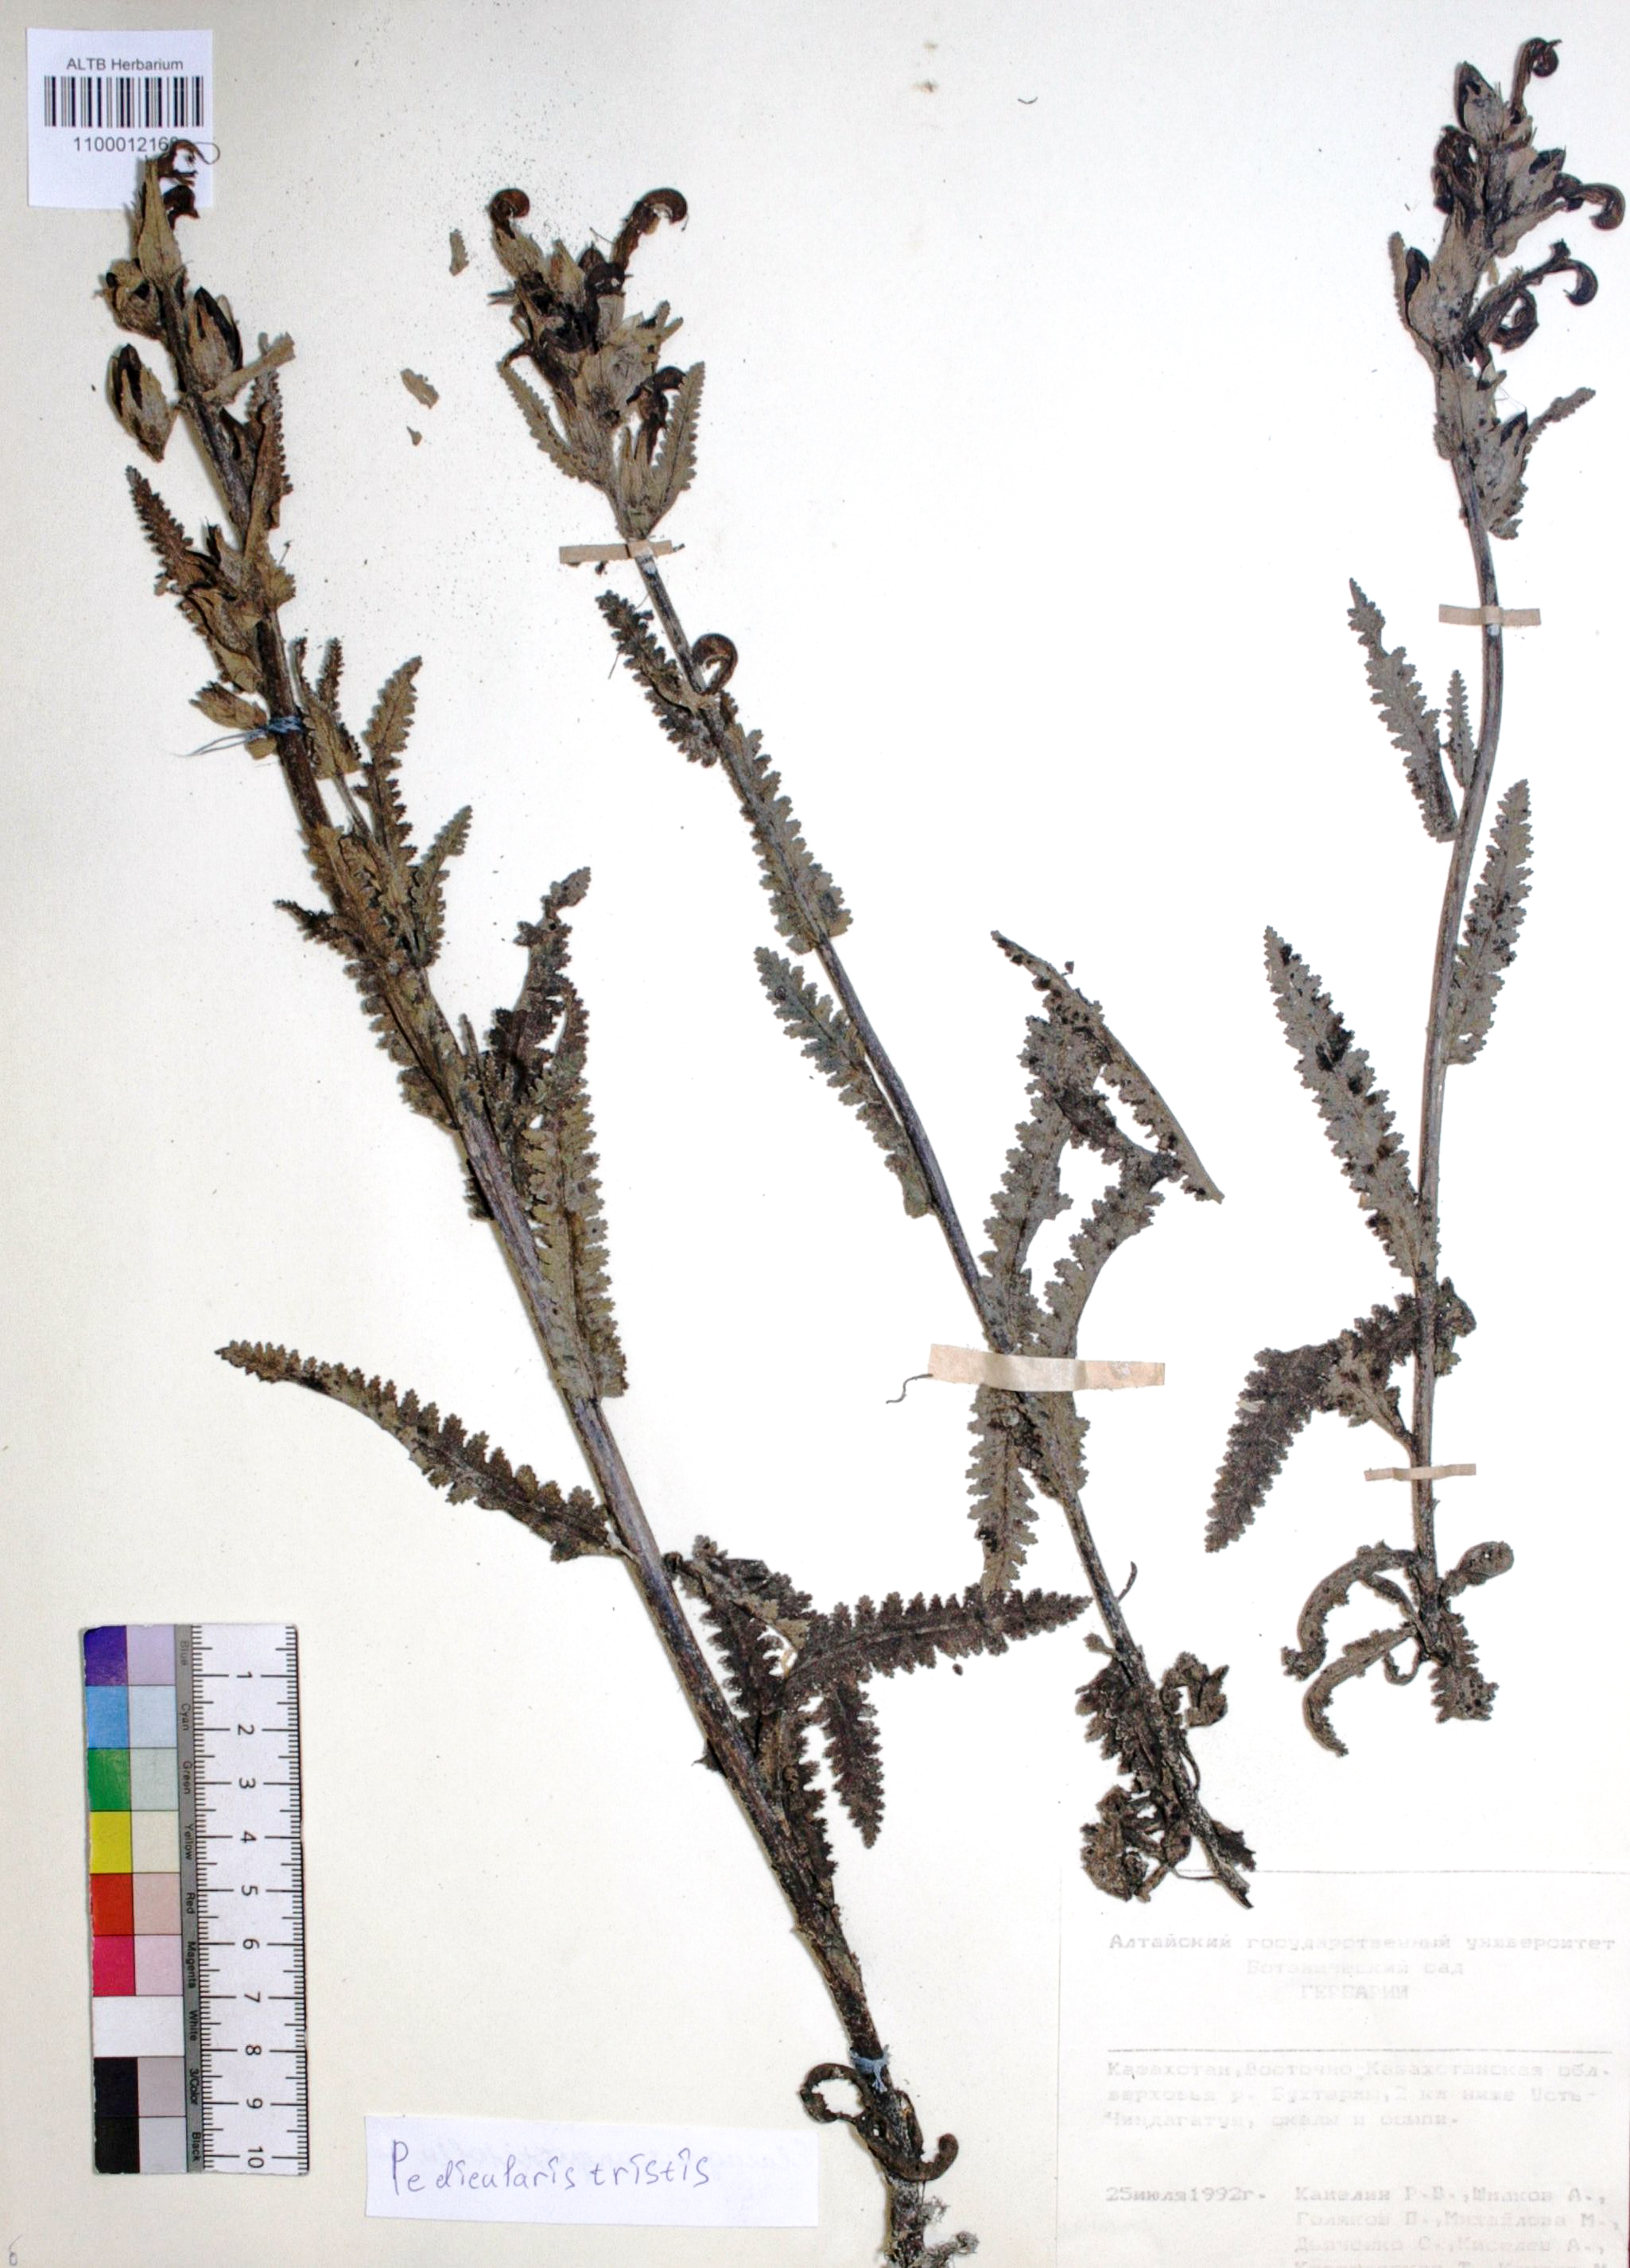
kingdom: Plantae
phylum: Tracheophyta
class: Magnoliopsida
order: Lamiales
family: Orobanchaceae
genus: Pedicularis
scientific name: Pedicularis tristis
